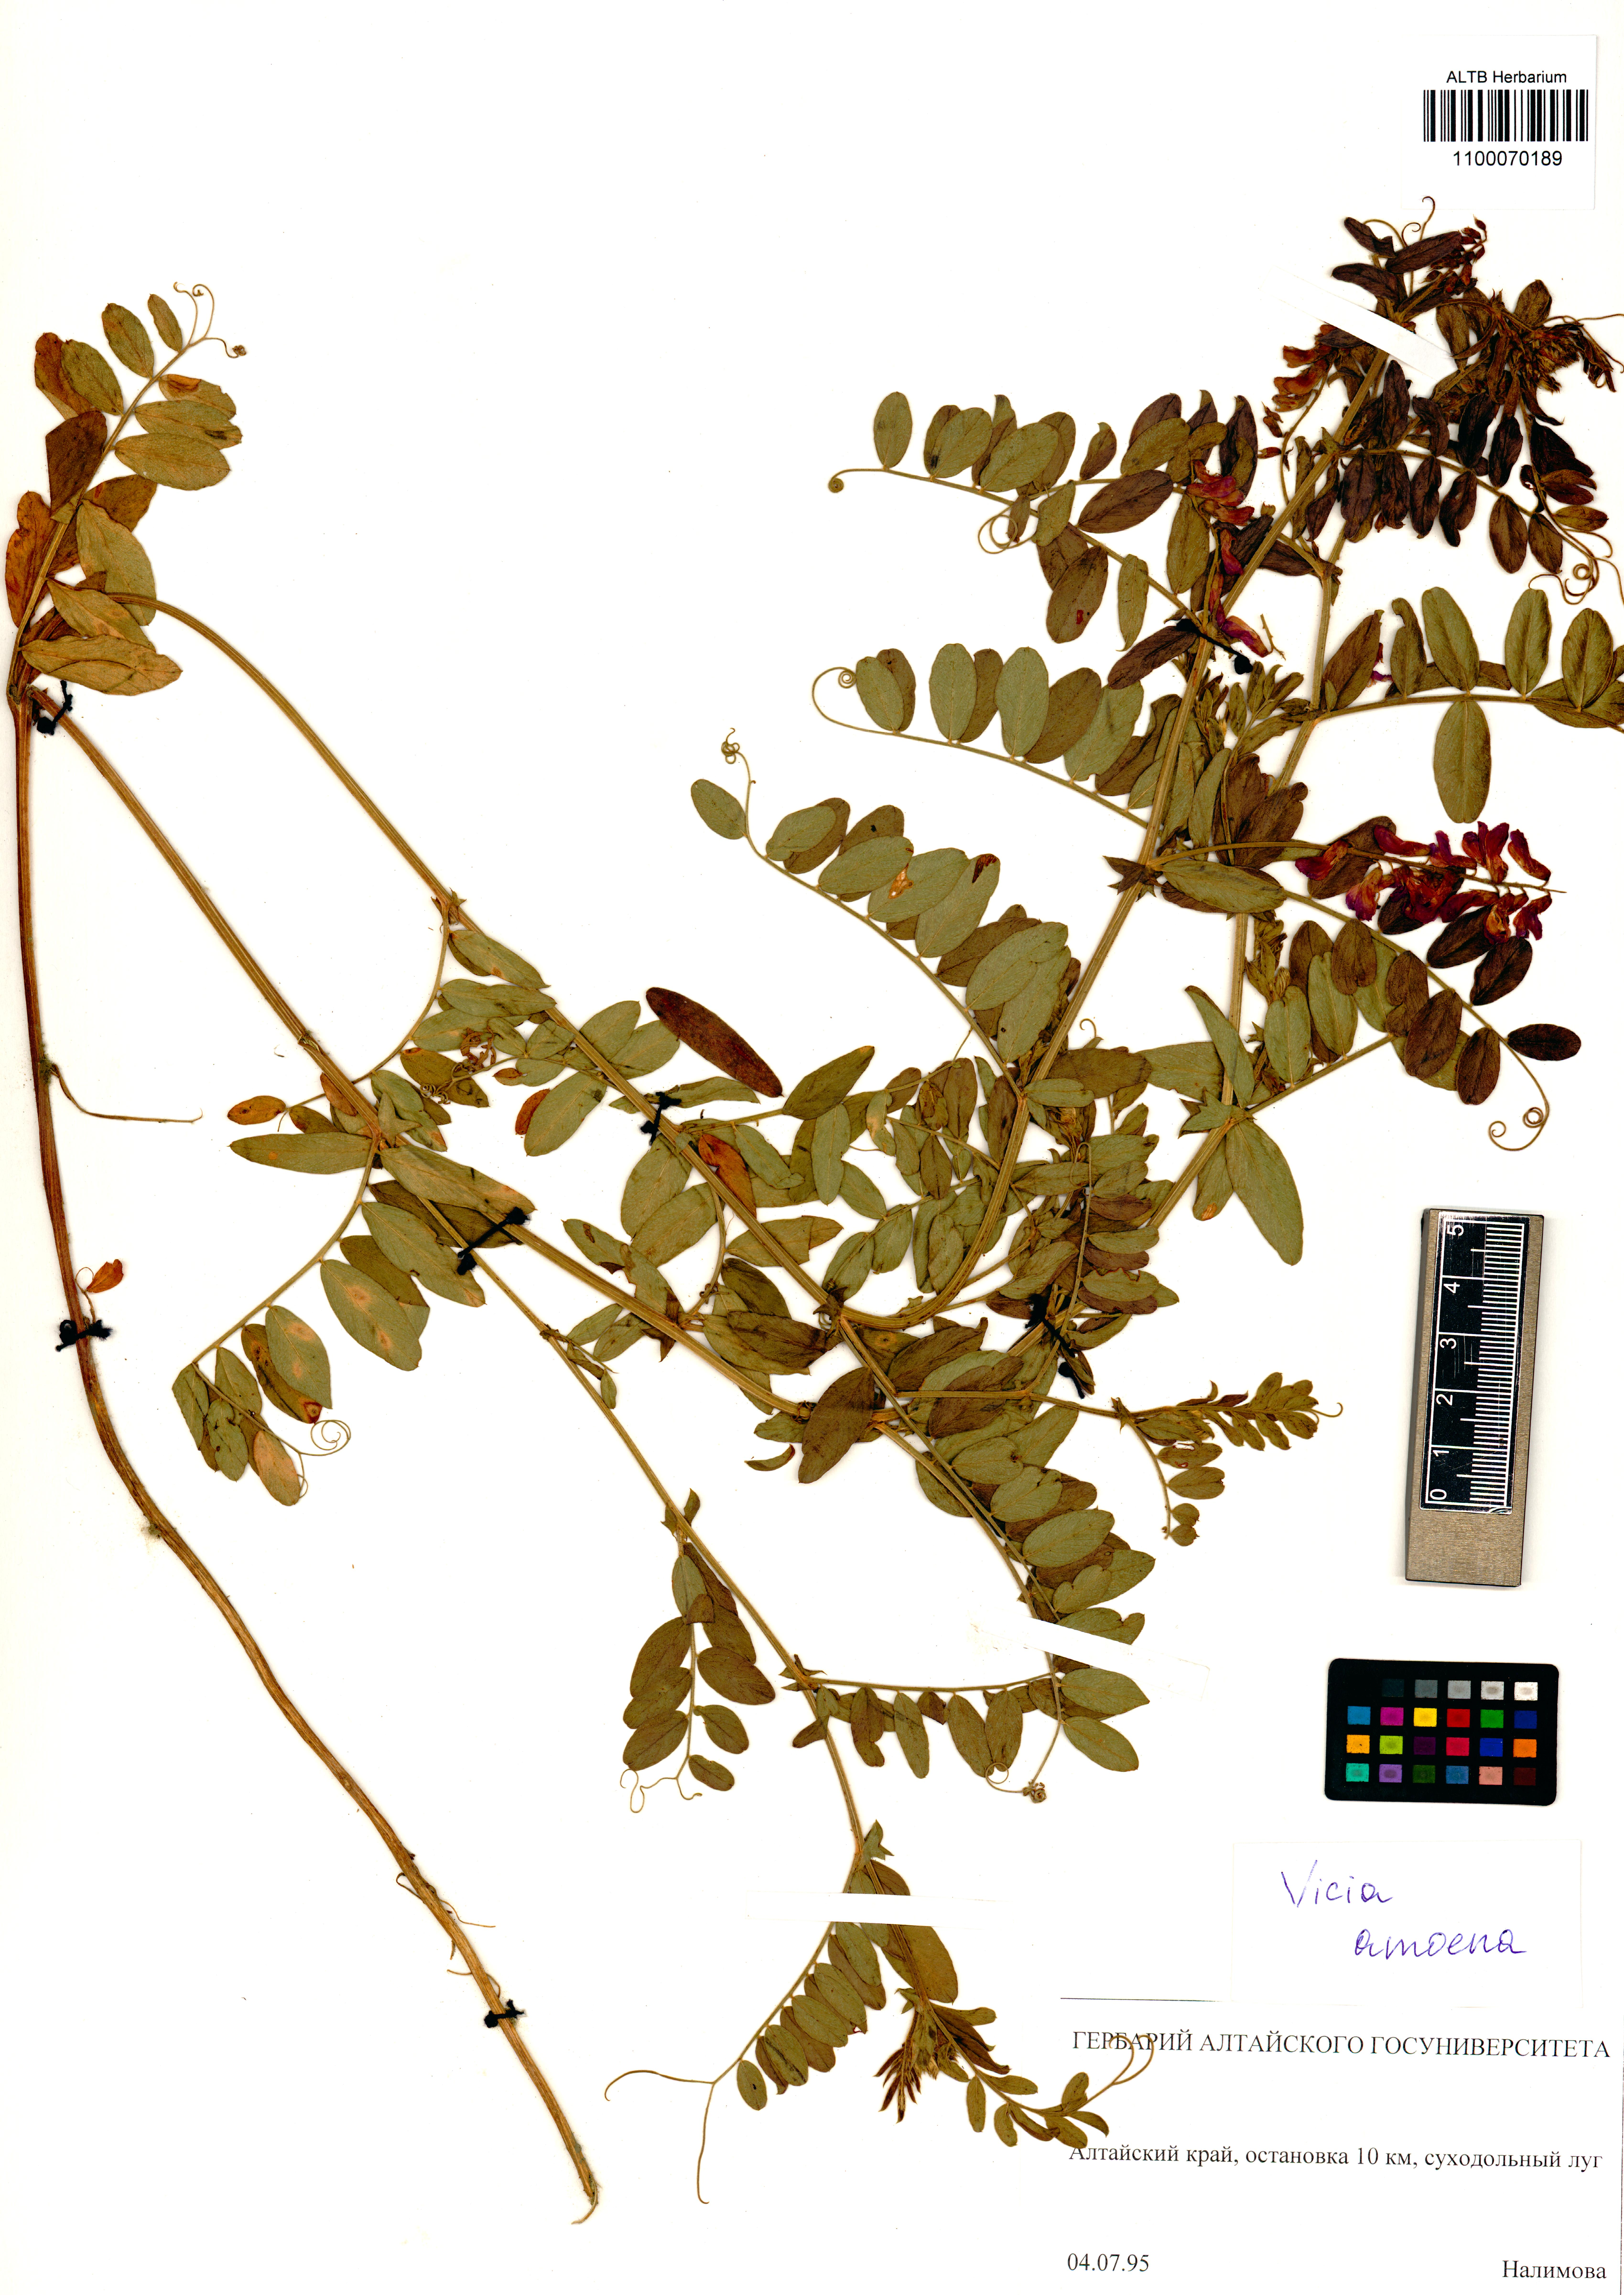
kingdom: Plantae
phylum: Tracheophyta
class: Magnoliopsida
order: Fabales
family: Fabaceae
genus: Vicia
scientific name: Vicia amoena
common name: Cheder ebs
